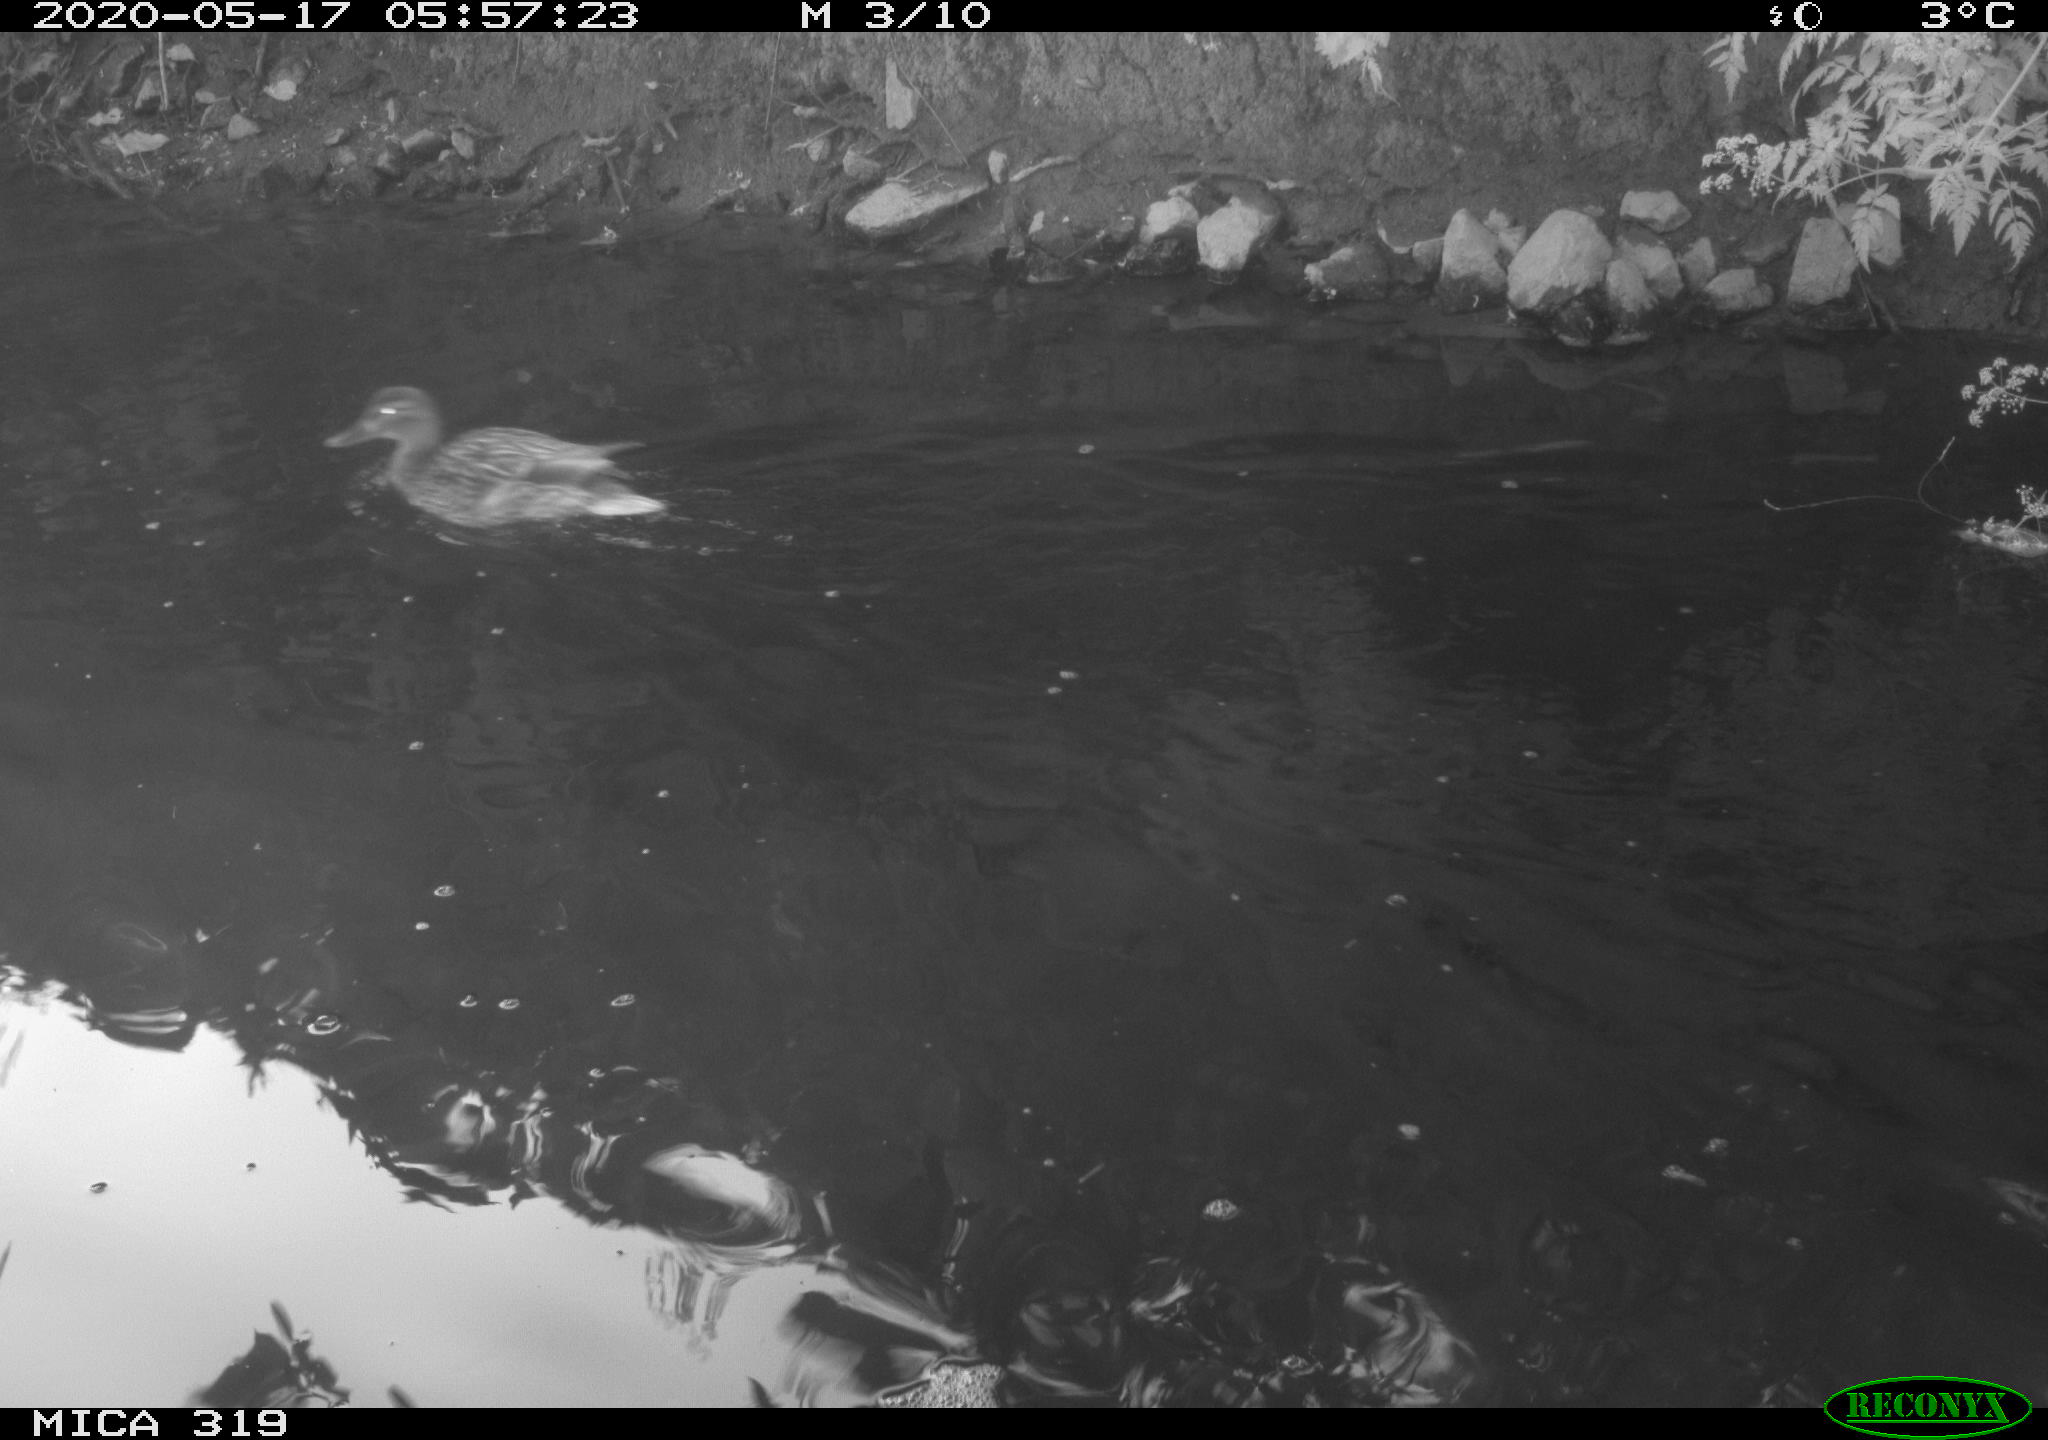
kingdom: Animalia
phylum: Chordata
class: Aves
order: Anseriformes
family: Anatidae
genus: Anas
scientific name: Anas platyrhynchos
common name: Mallard
